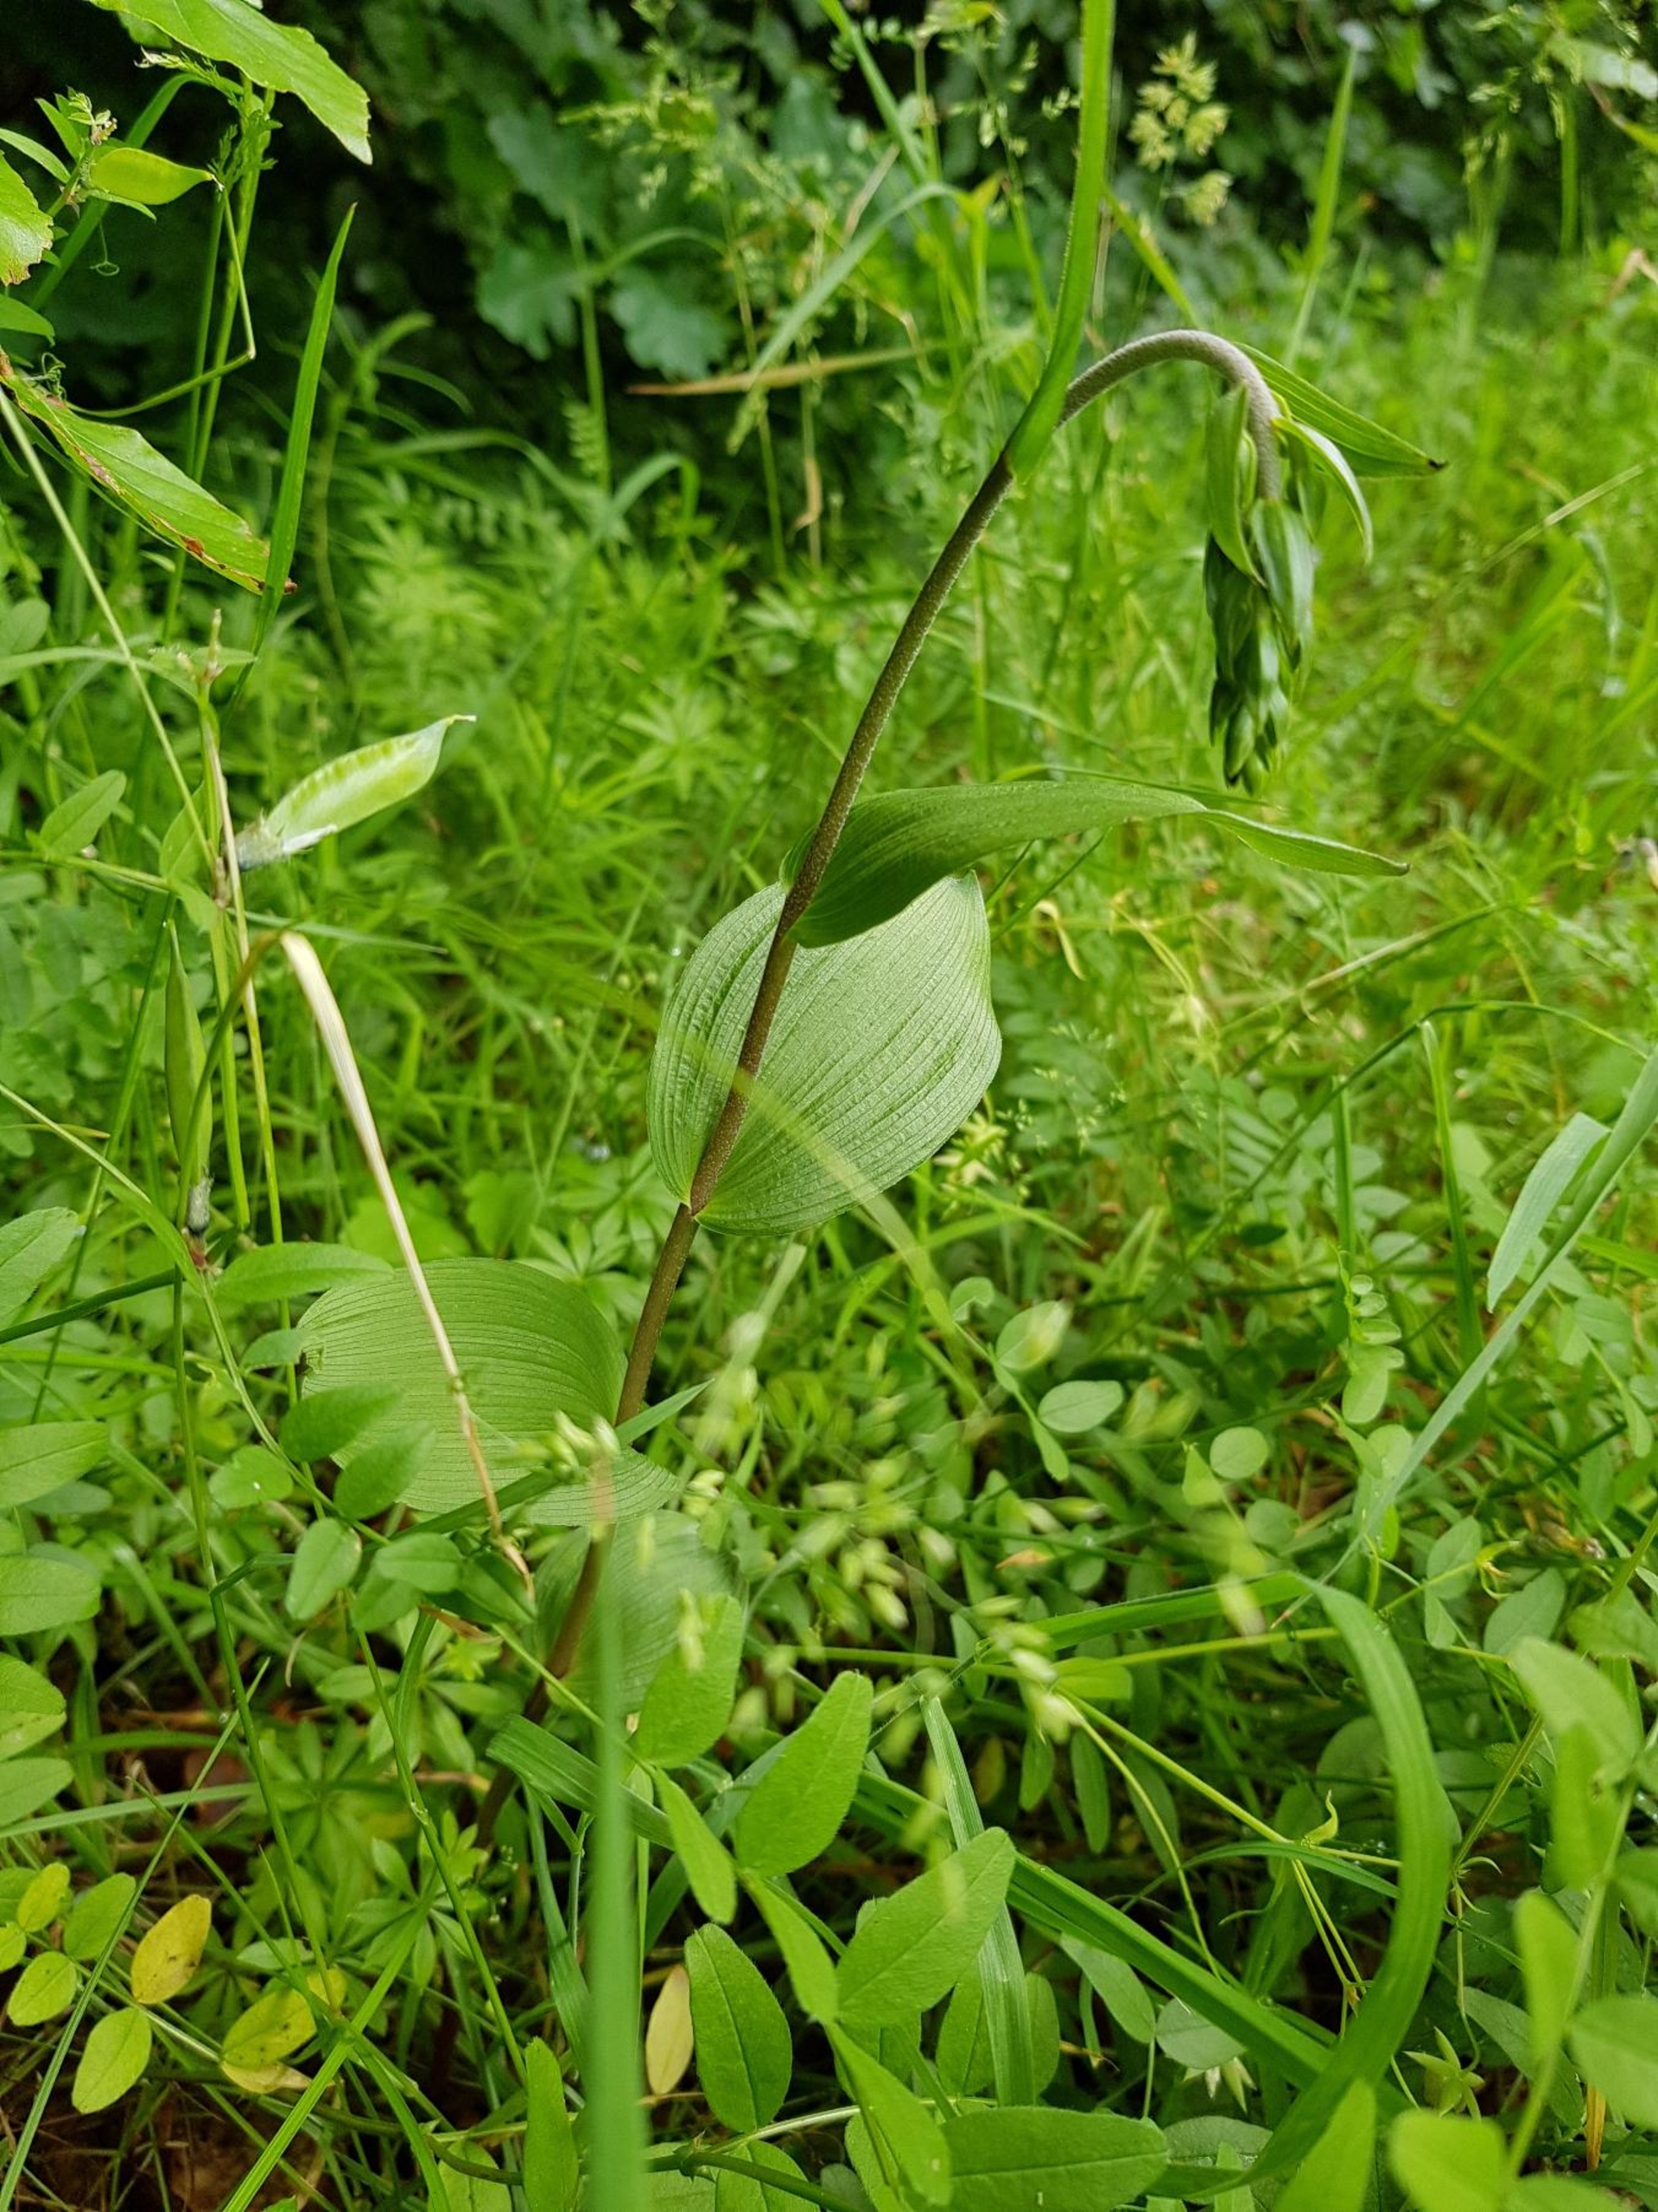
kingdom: Plantae
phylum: Tracheophyta
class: Liliopsida
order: Asparagales
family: Orchidaceae
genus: Epipactis
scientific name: Epipactis helleborine
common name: Skov-hullæbe
